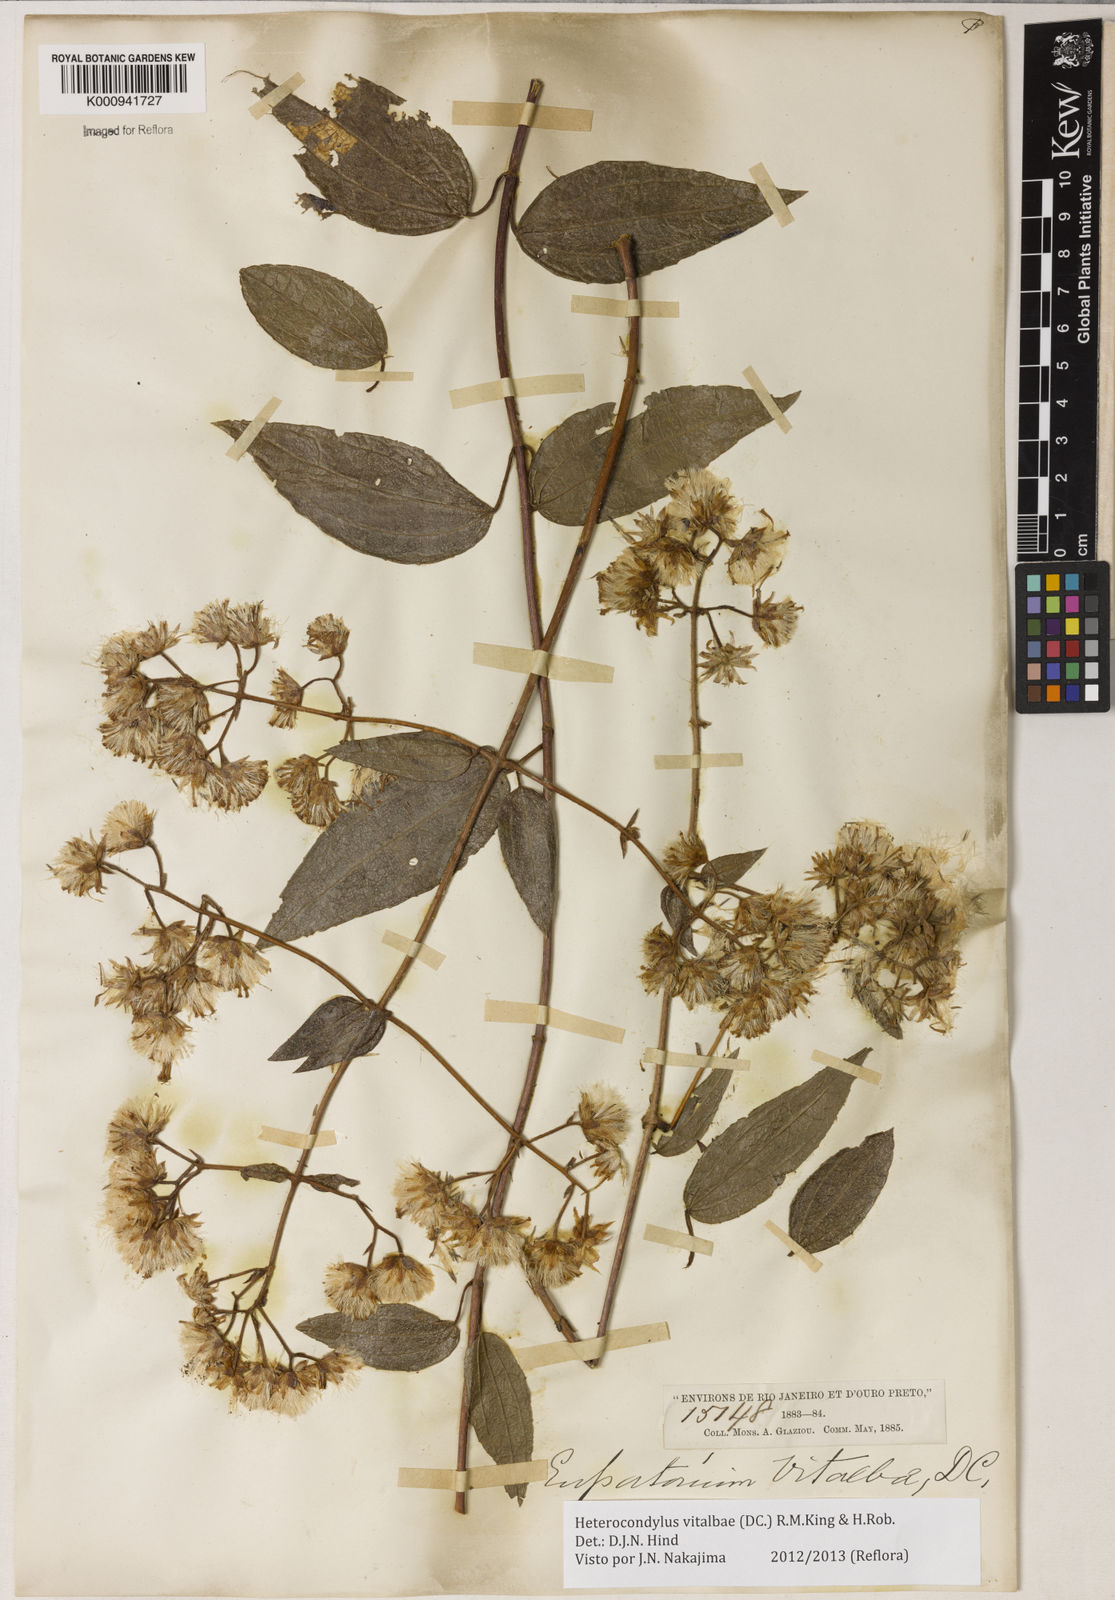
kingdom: Plantae
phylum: Tracheophyta
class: Magnoliopsida
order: Asterales
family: Asteraceae
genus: Heterocondylus
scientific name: Heterocondylus vitalbae
